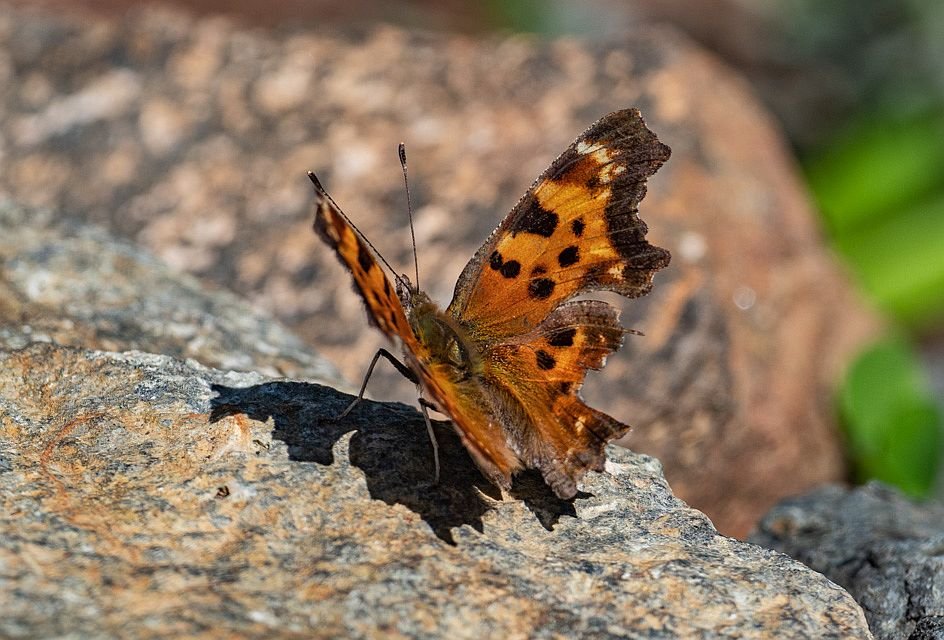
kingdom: Animalia
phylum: Arthropoda
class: Insecta
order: Lepidoptera
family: Nymphalidae
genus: Polygonia
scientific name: Polygonia satyrus
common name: Satyr Comma
